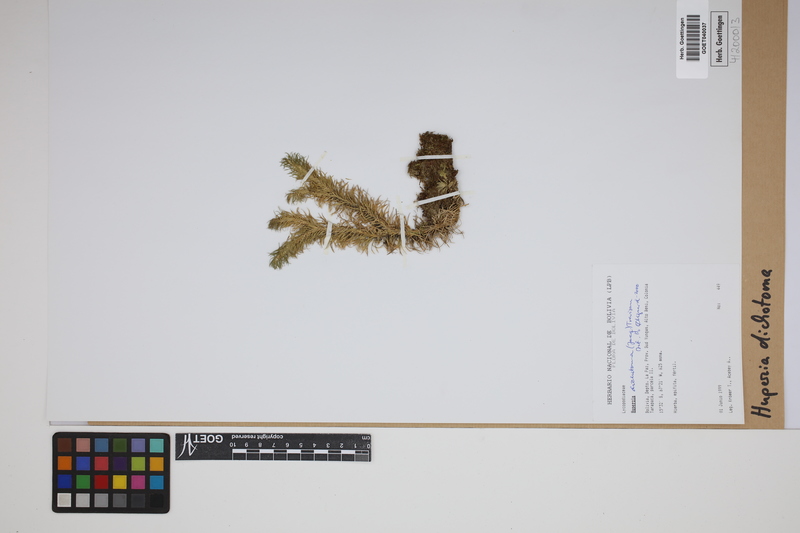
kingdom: Plantae
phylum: Tracheophyta
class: Lycopodiopsida
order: Lycopodiales
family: Lycopodiaceae
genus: Phlegmariurus
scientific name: Phlegmariurus dichotomus
